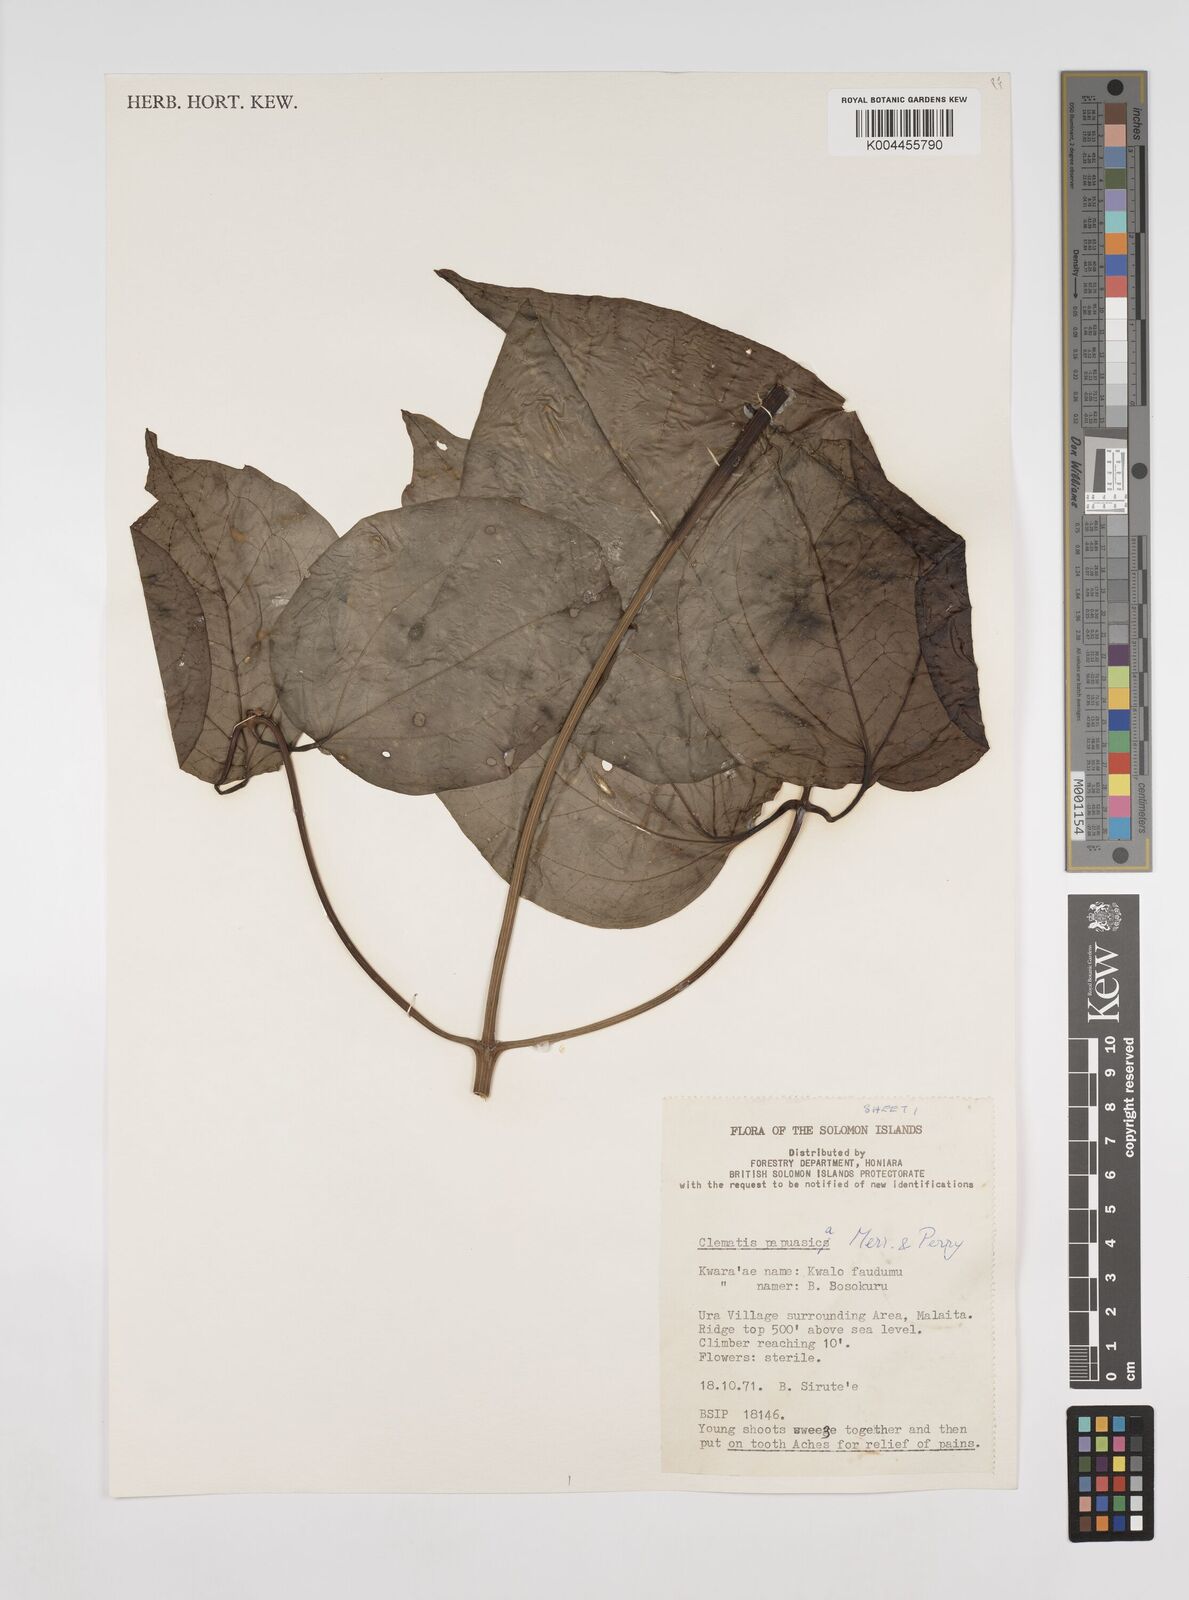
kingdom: Plantae
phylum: Tracheophyta
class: Magnoliopsida
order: Ranunculales
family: Ranunculaceae
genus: Clematis
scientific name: Clematis papuasica
